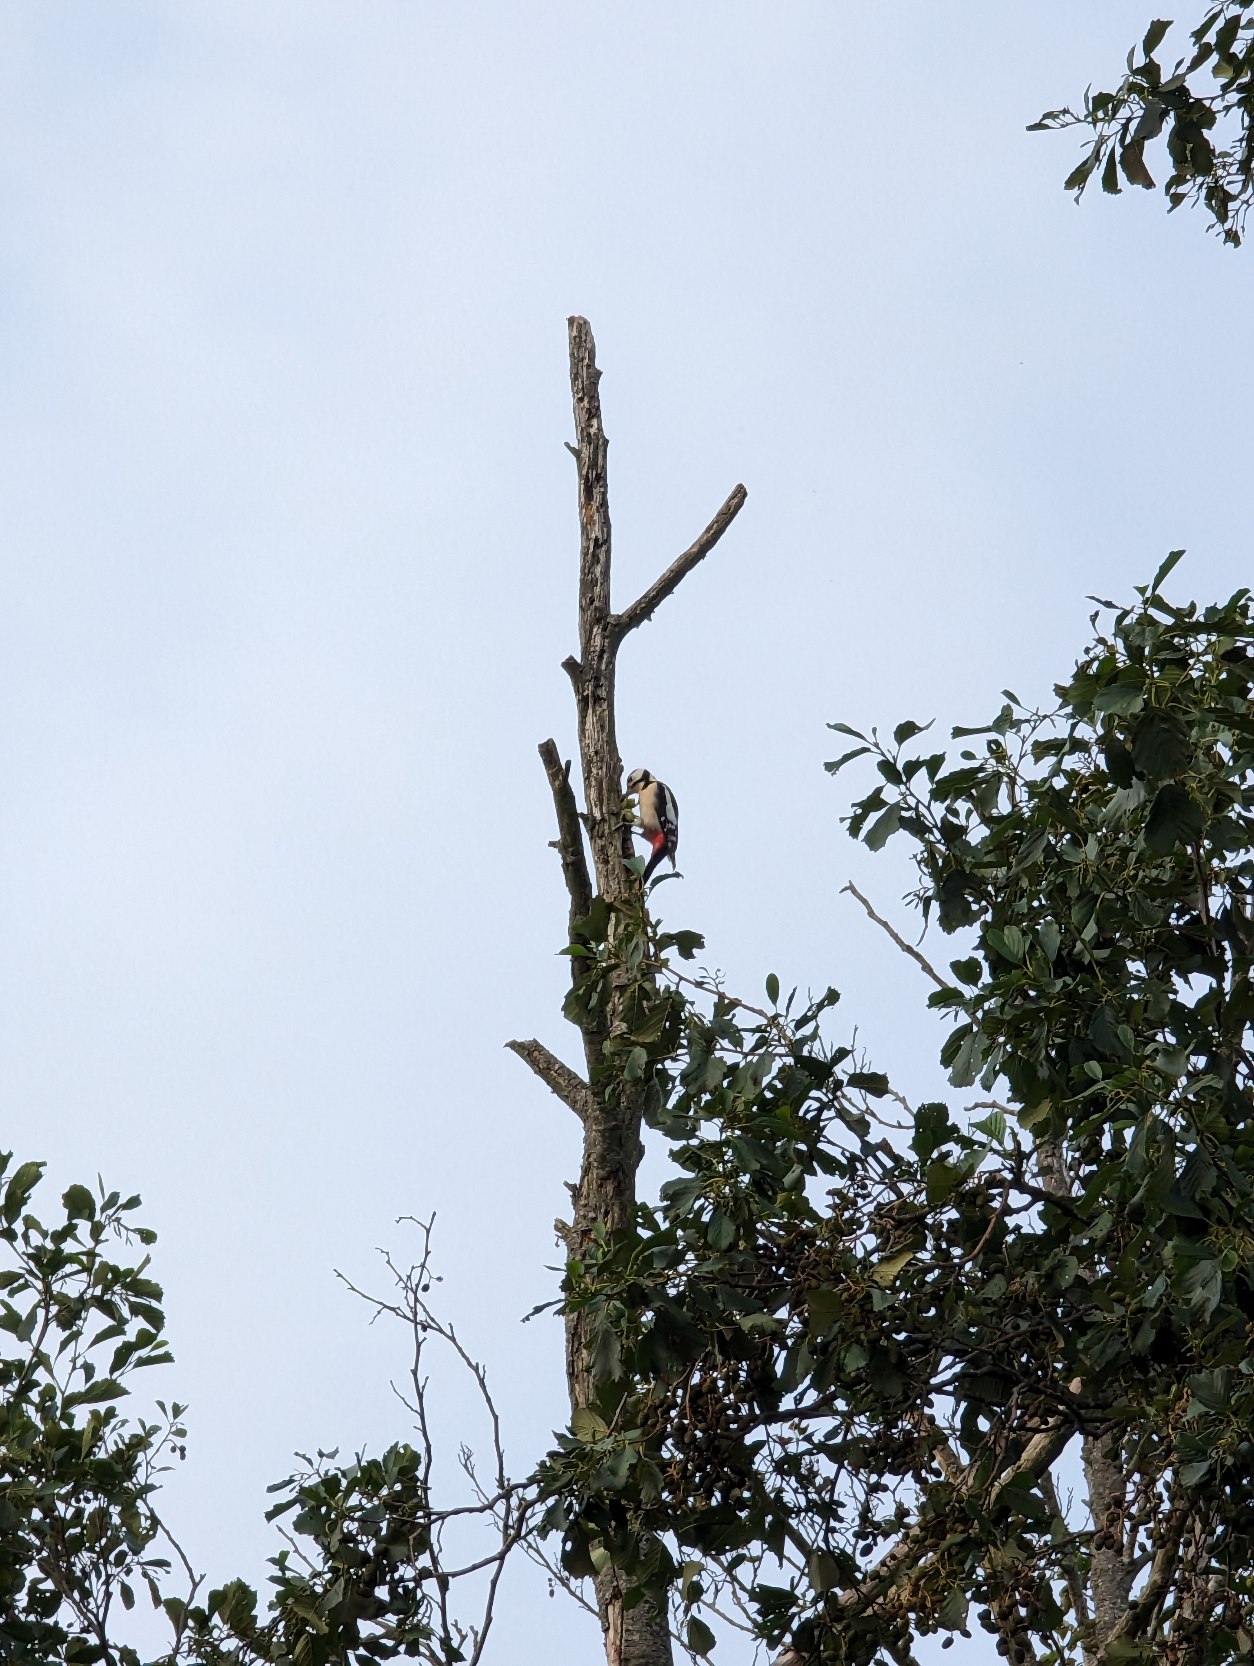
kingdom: Animalia
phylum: Chordata
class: Aves
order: Piciformes
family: Picidae
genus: Dendrocopos
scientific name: Dendrocopos major
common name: Stor flagspætte
